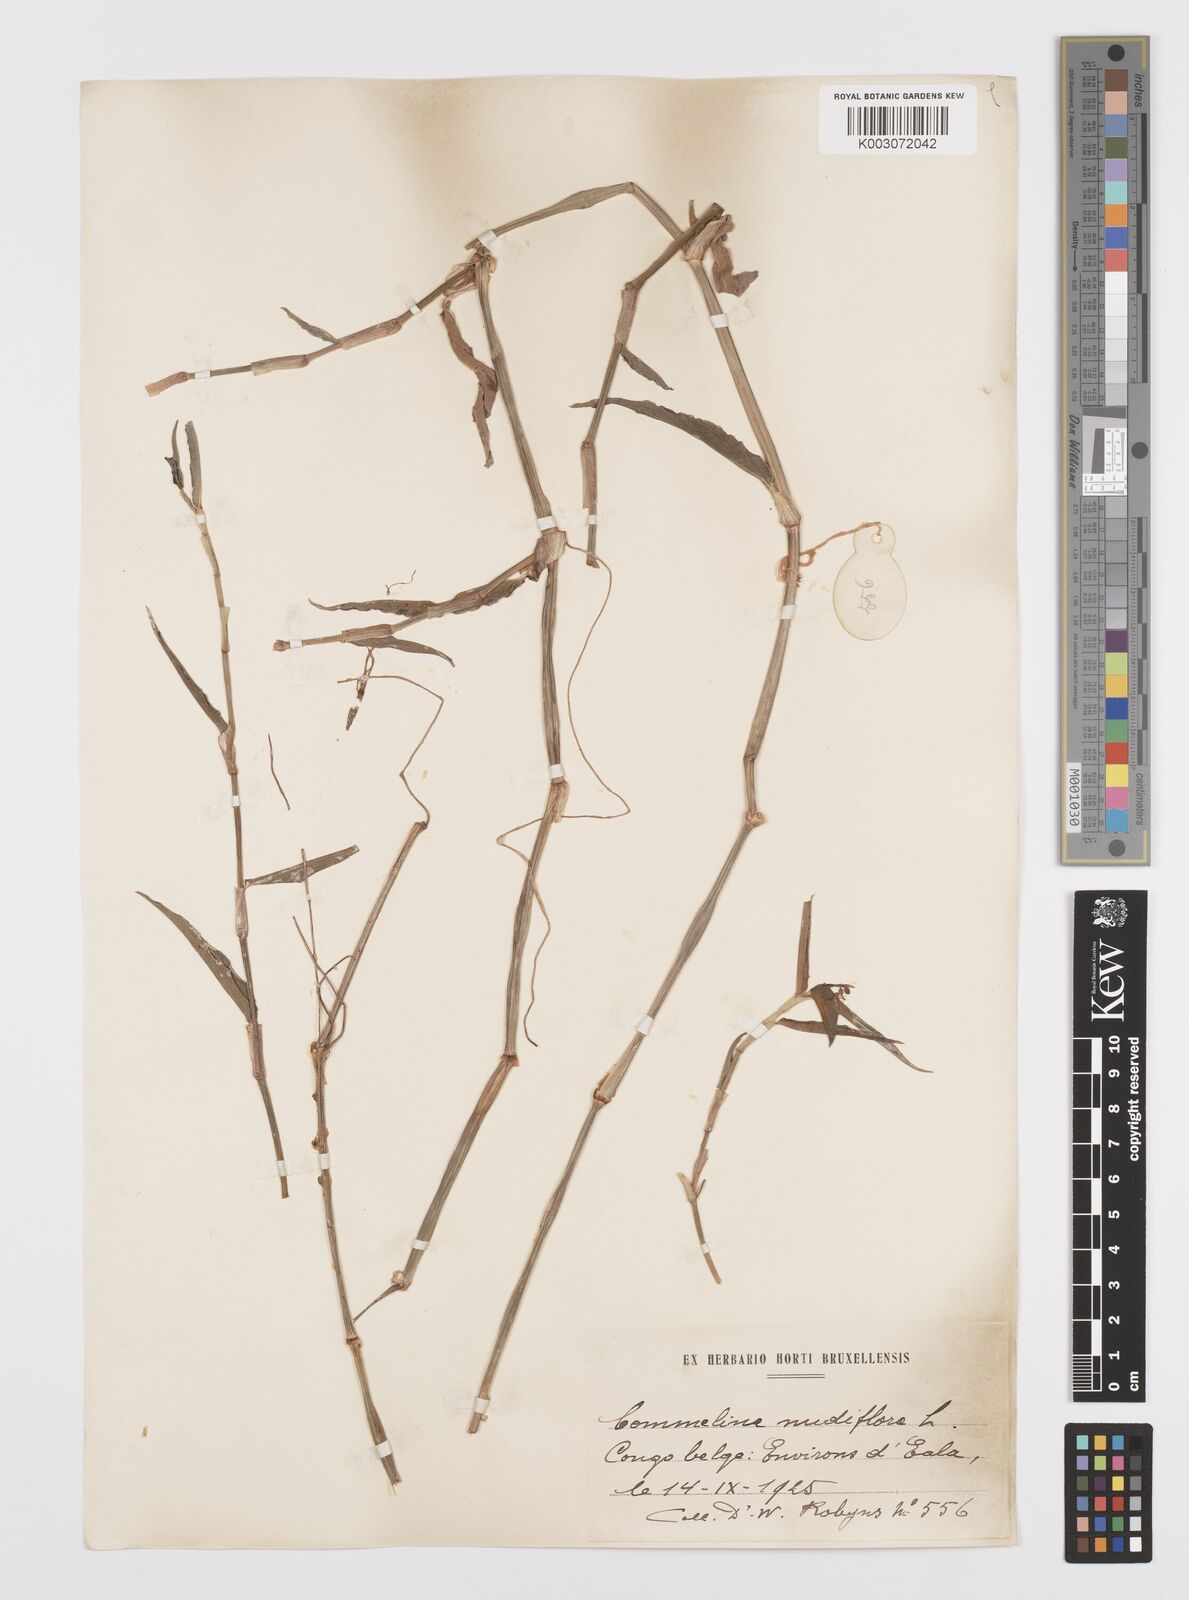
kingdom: Plantae
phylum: Tracheophyta
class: Liliopsida
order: Commelinales
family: Commelinaceae
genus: Commelina
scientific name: Commelina diffusa
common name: Climbing dayflower
